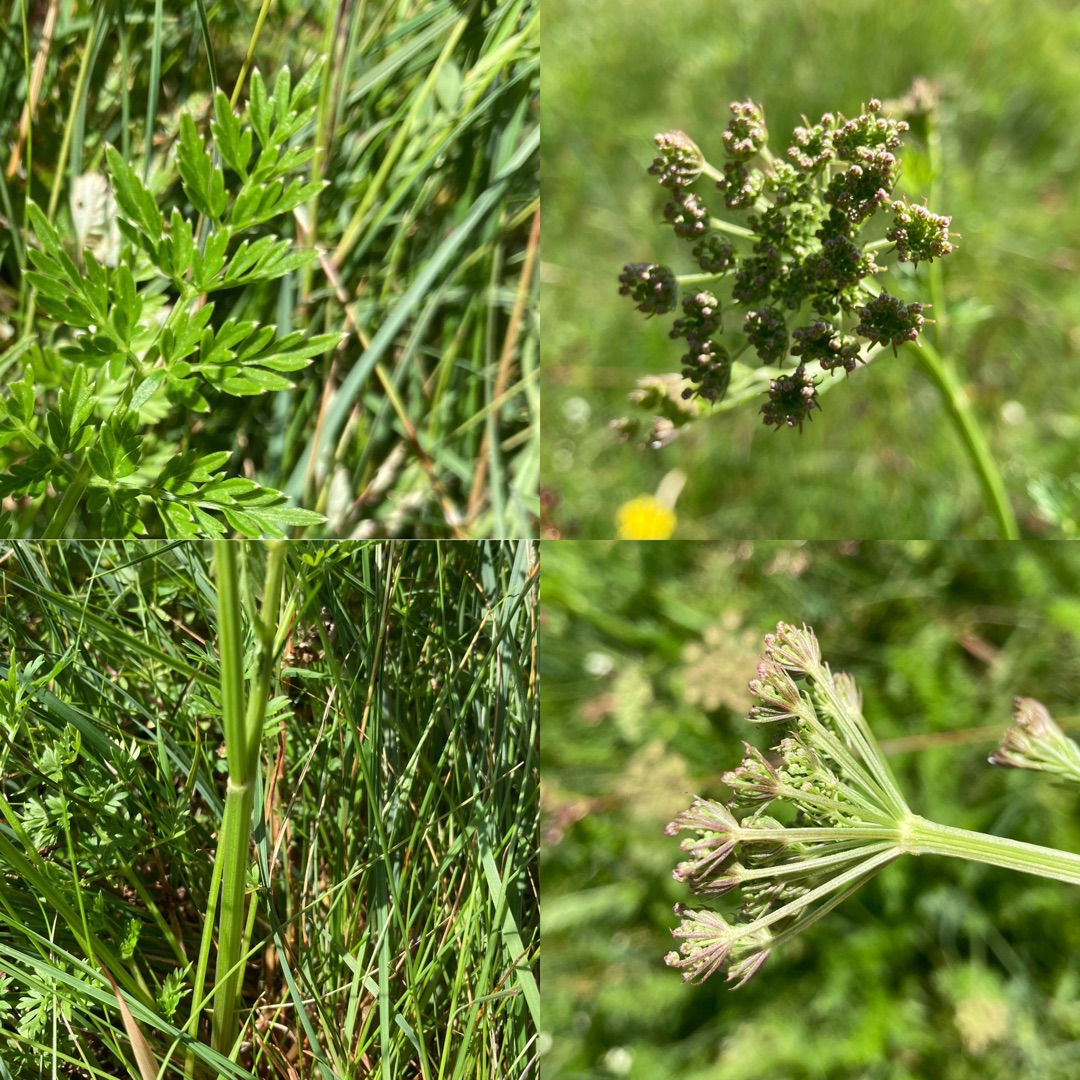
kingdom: Plantae
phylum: Tracheophyta
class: Magnoliopsida
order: Apiales
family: Apiaceae
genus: Selinum
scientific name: Selinum carvifolia
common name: Seline
